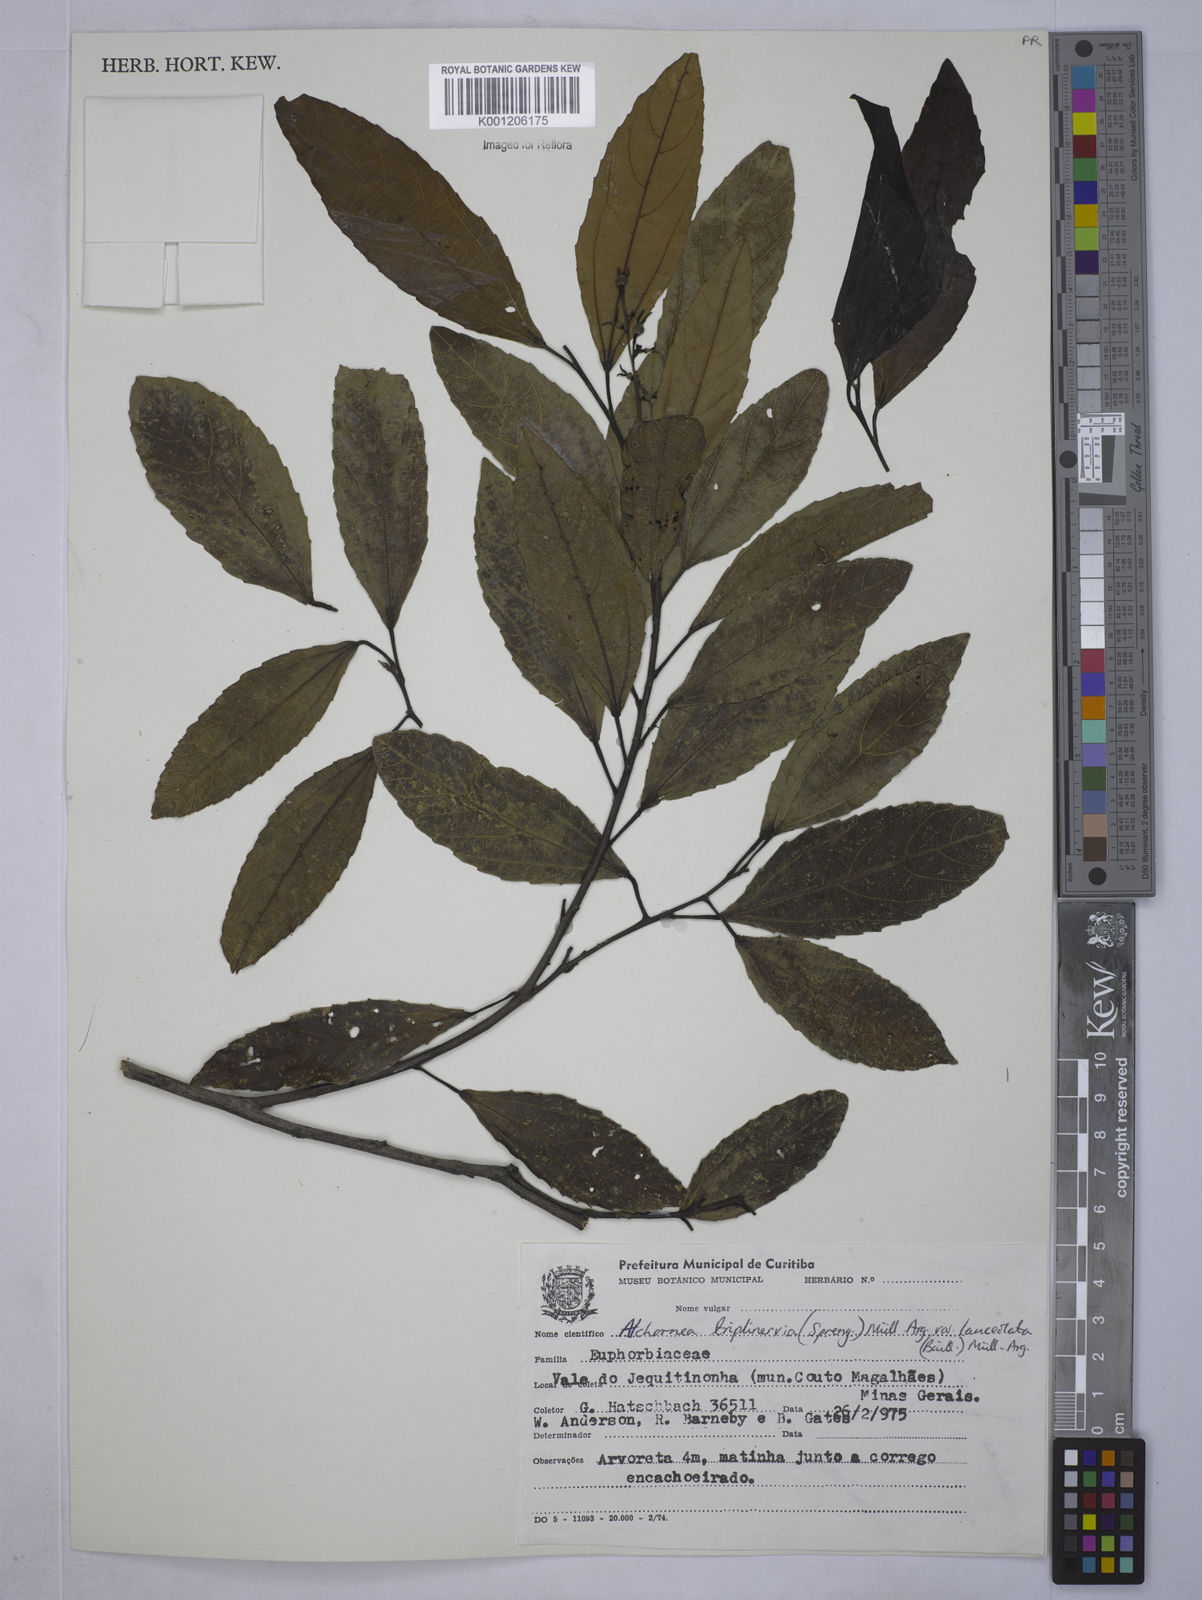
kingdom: Plantae
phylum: Tracheophyta
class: Magnoliopsida
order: Malpighiales
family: Euphorbiaceae
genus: Alchornea
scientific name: Alchornea
